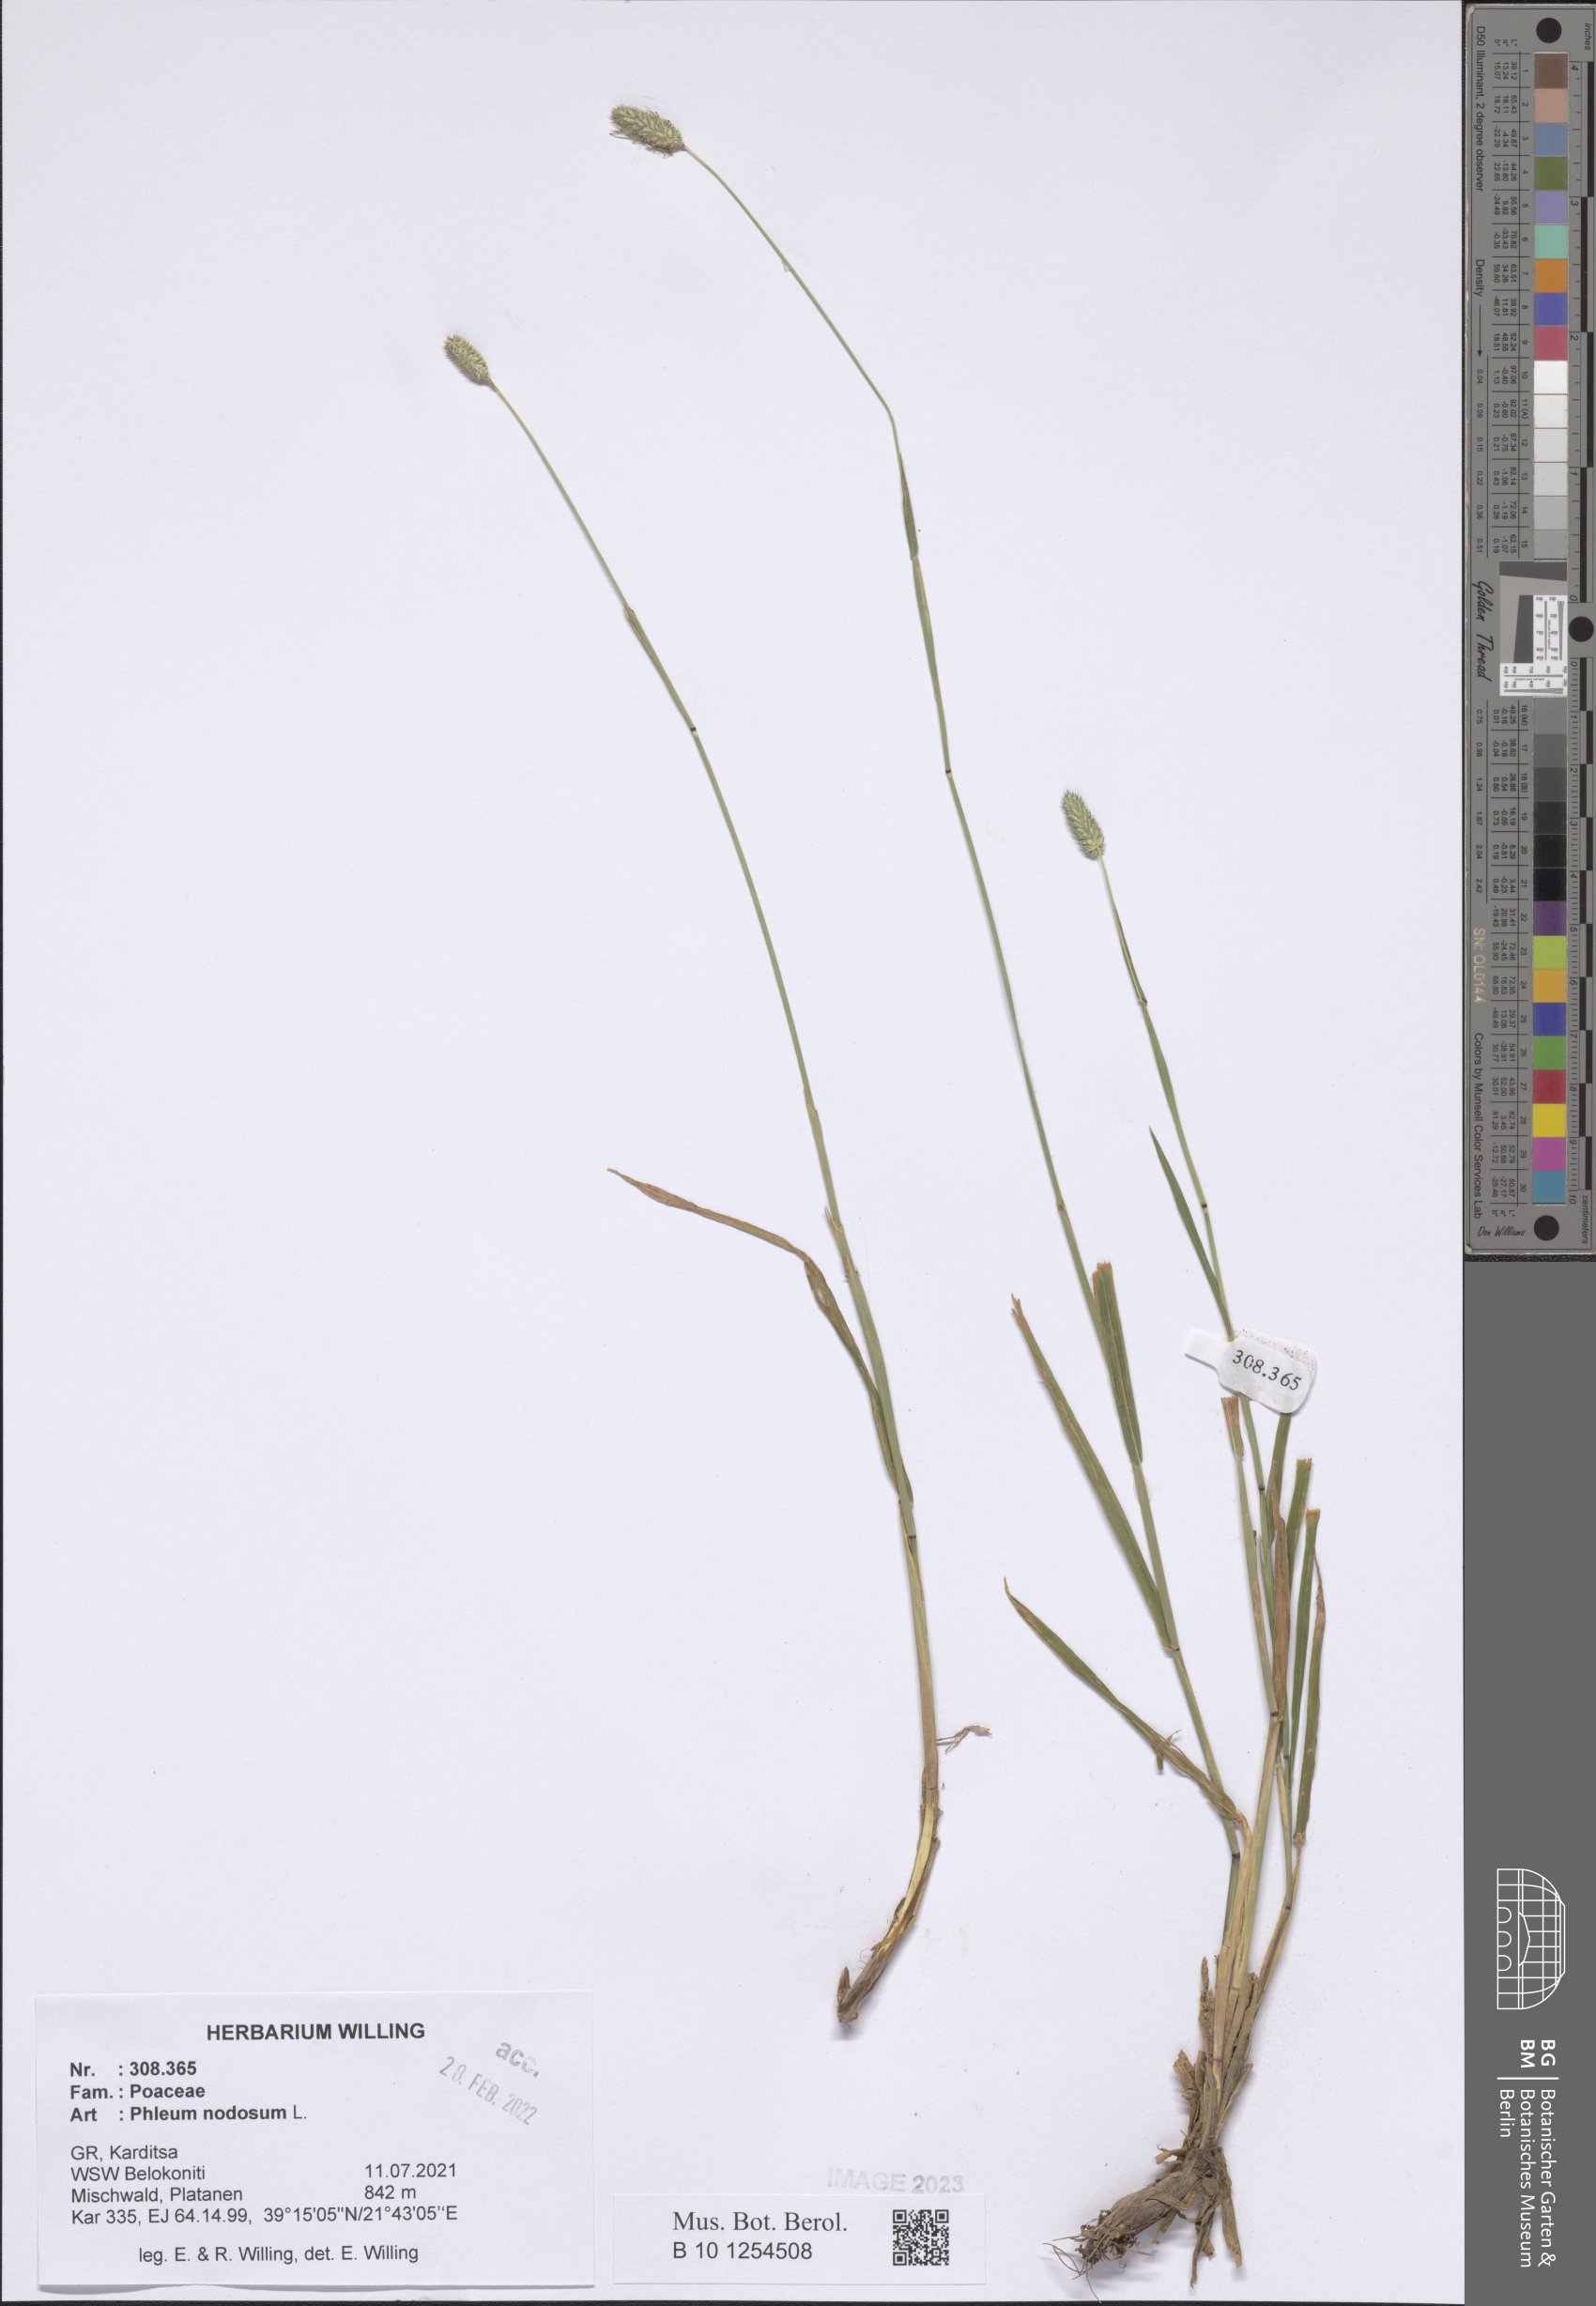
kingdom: Plantae
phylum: Tracheophyta
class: Liliopsida
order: Poales
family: Poaceae
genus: Phleum
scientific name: Phleum pratense
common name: Timothy grass
